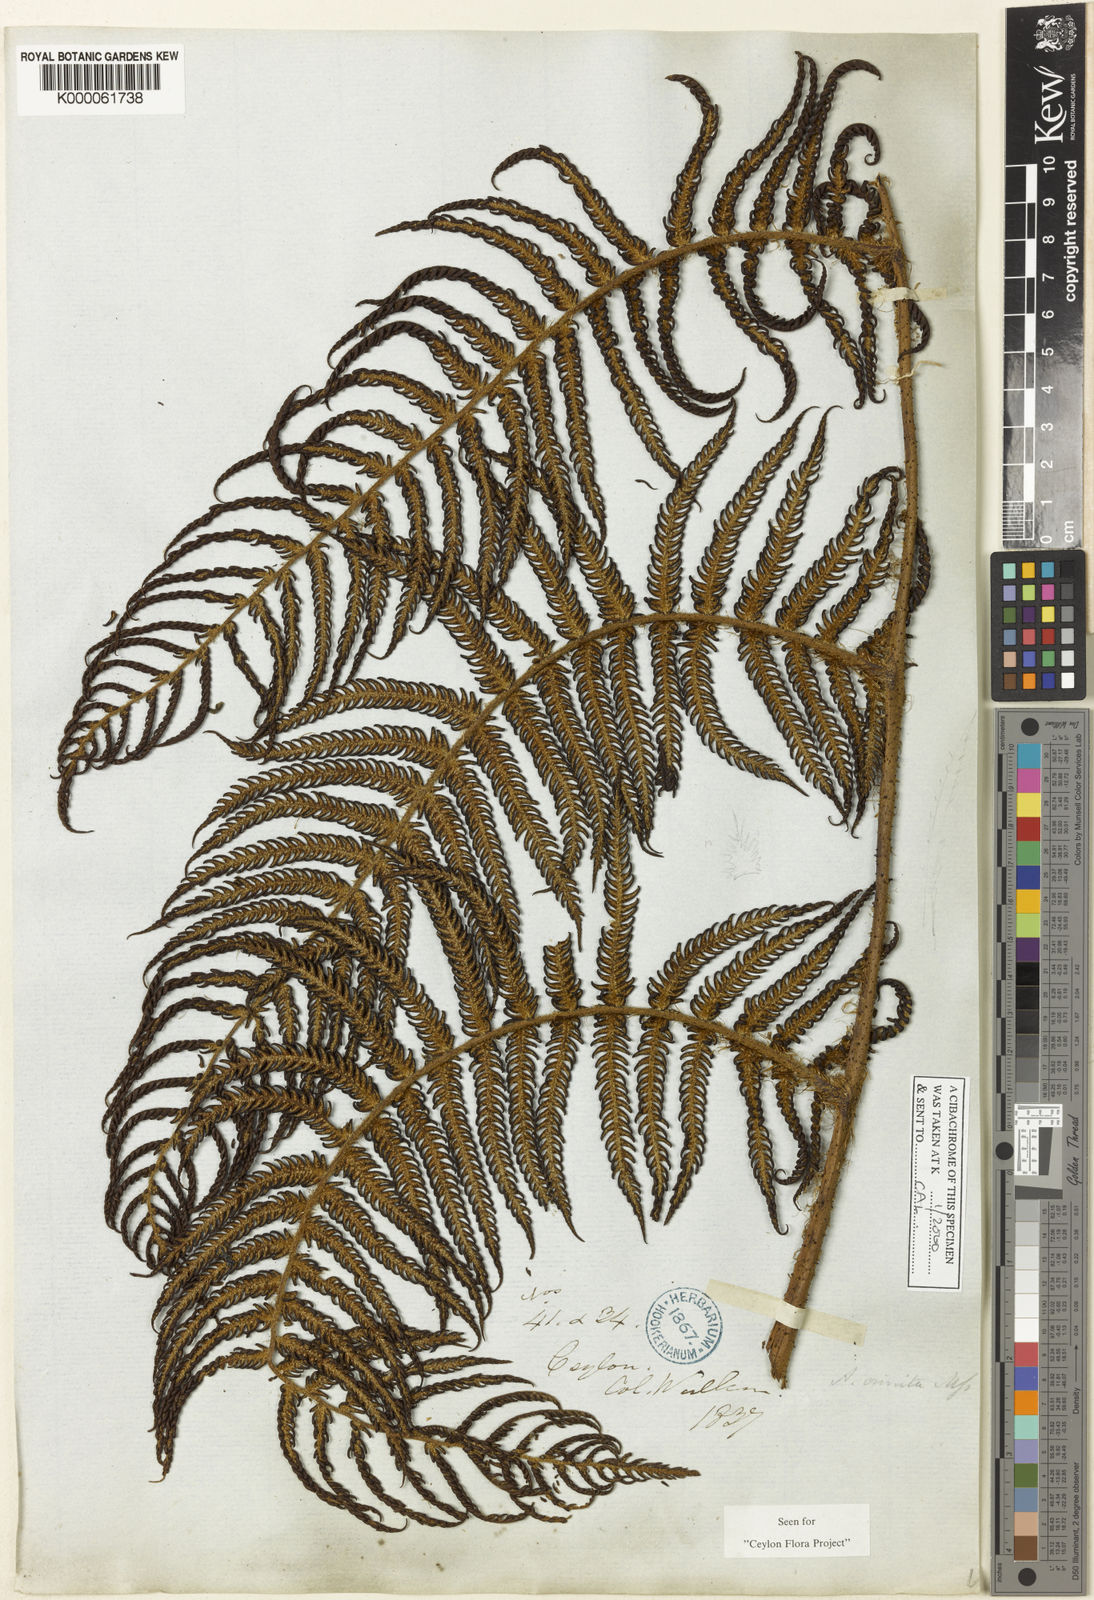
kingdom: Plantae
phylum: Tracheophyta
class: Polypodiopsida
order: Cyatheales
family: Cyatheaceae
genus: Alsophila
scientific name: Alsophila crinita
